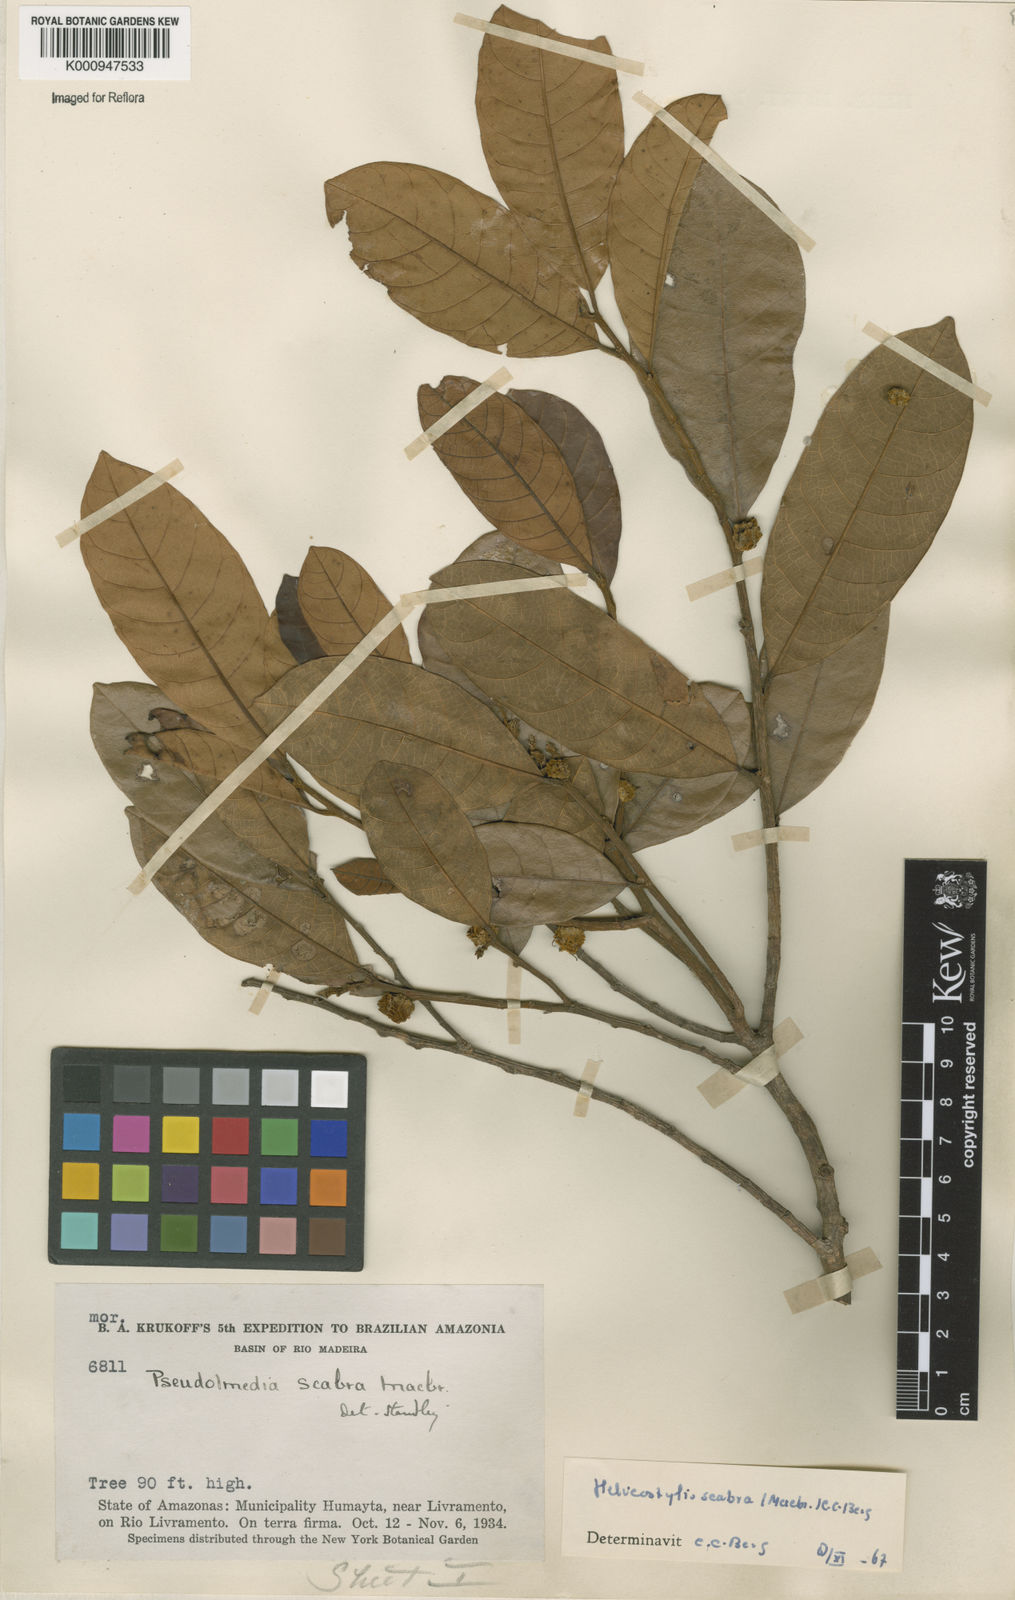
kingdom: Plantae
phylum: Tracheophyta
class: Magnoliopsida
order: Rosales
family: Moraceae
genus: Helicostylis
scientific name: Helicostylis scabra
